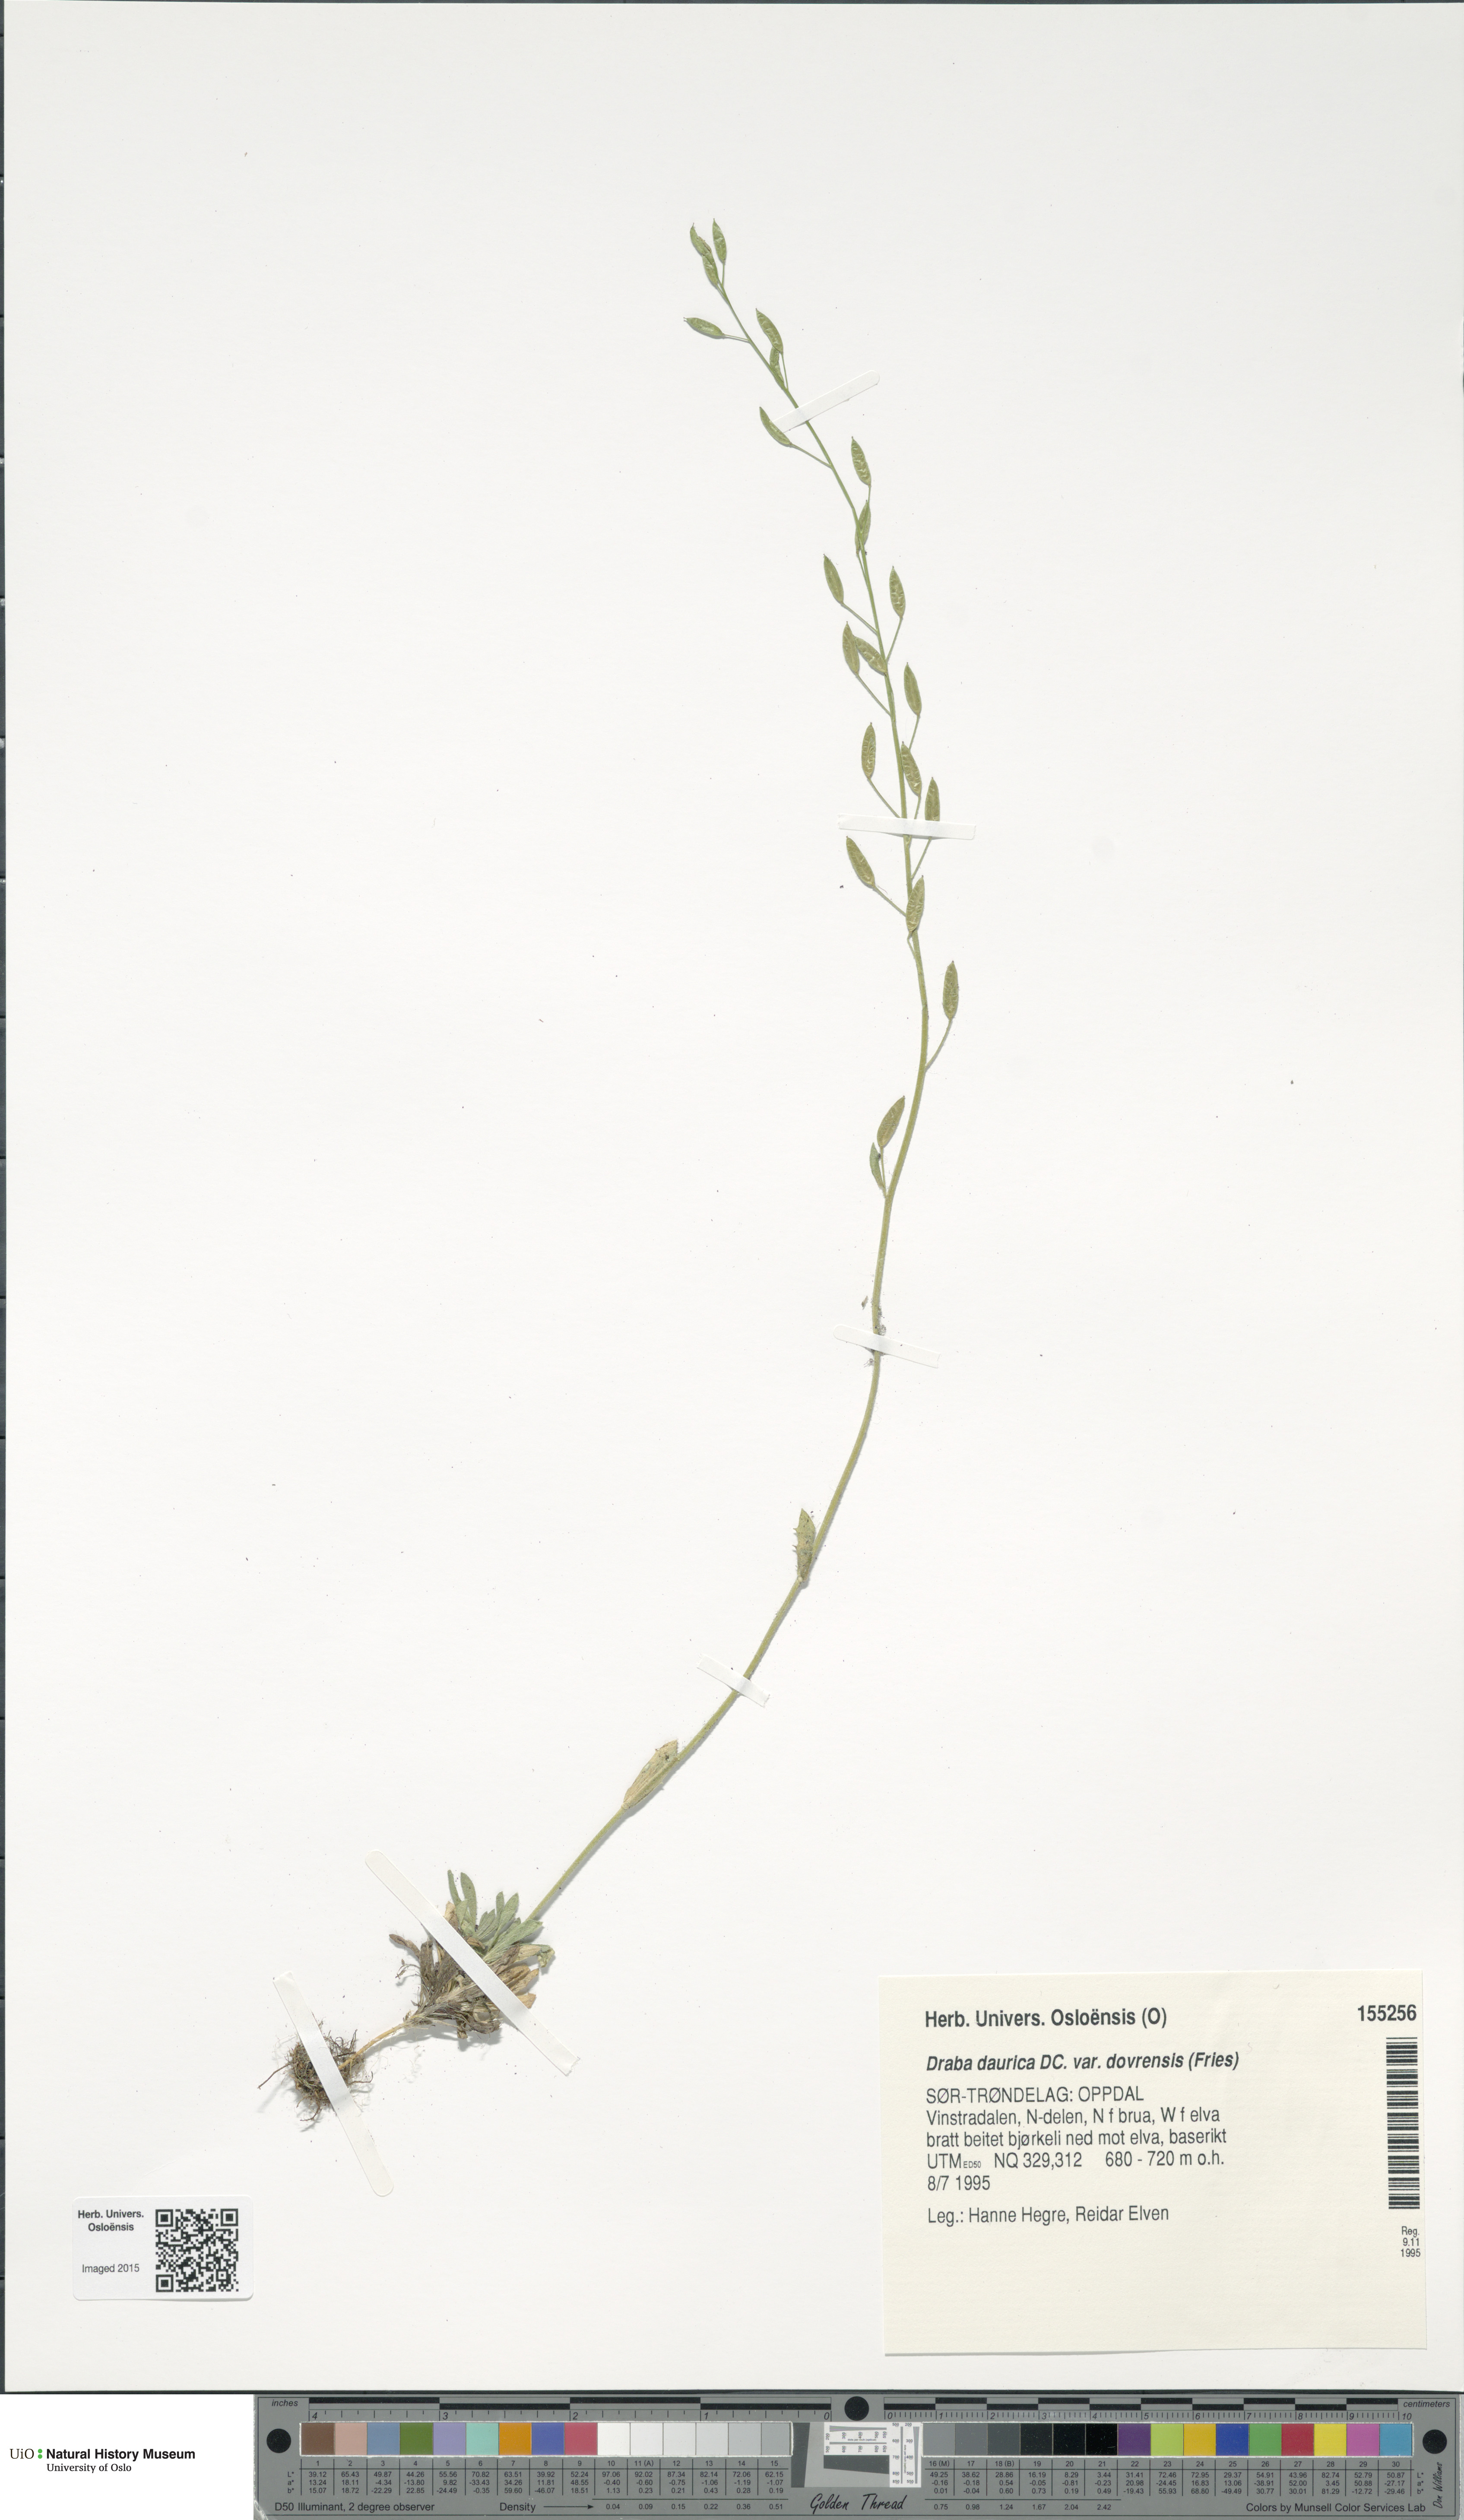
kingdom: Plantae
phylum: Tracheophyta
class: Magnoliopsida
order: Brassicales
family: Brassicaceae
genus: Draba
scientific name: Draba glabella
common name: Glaucous draba
